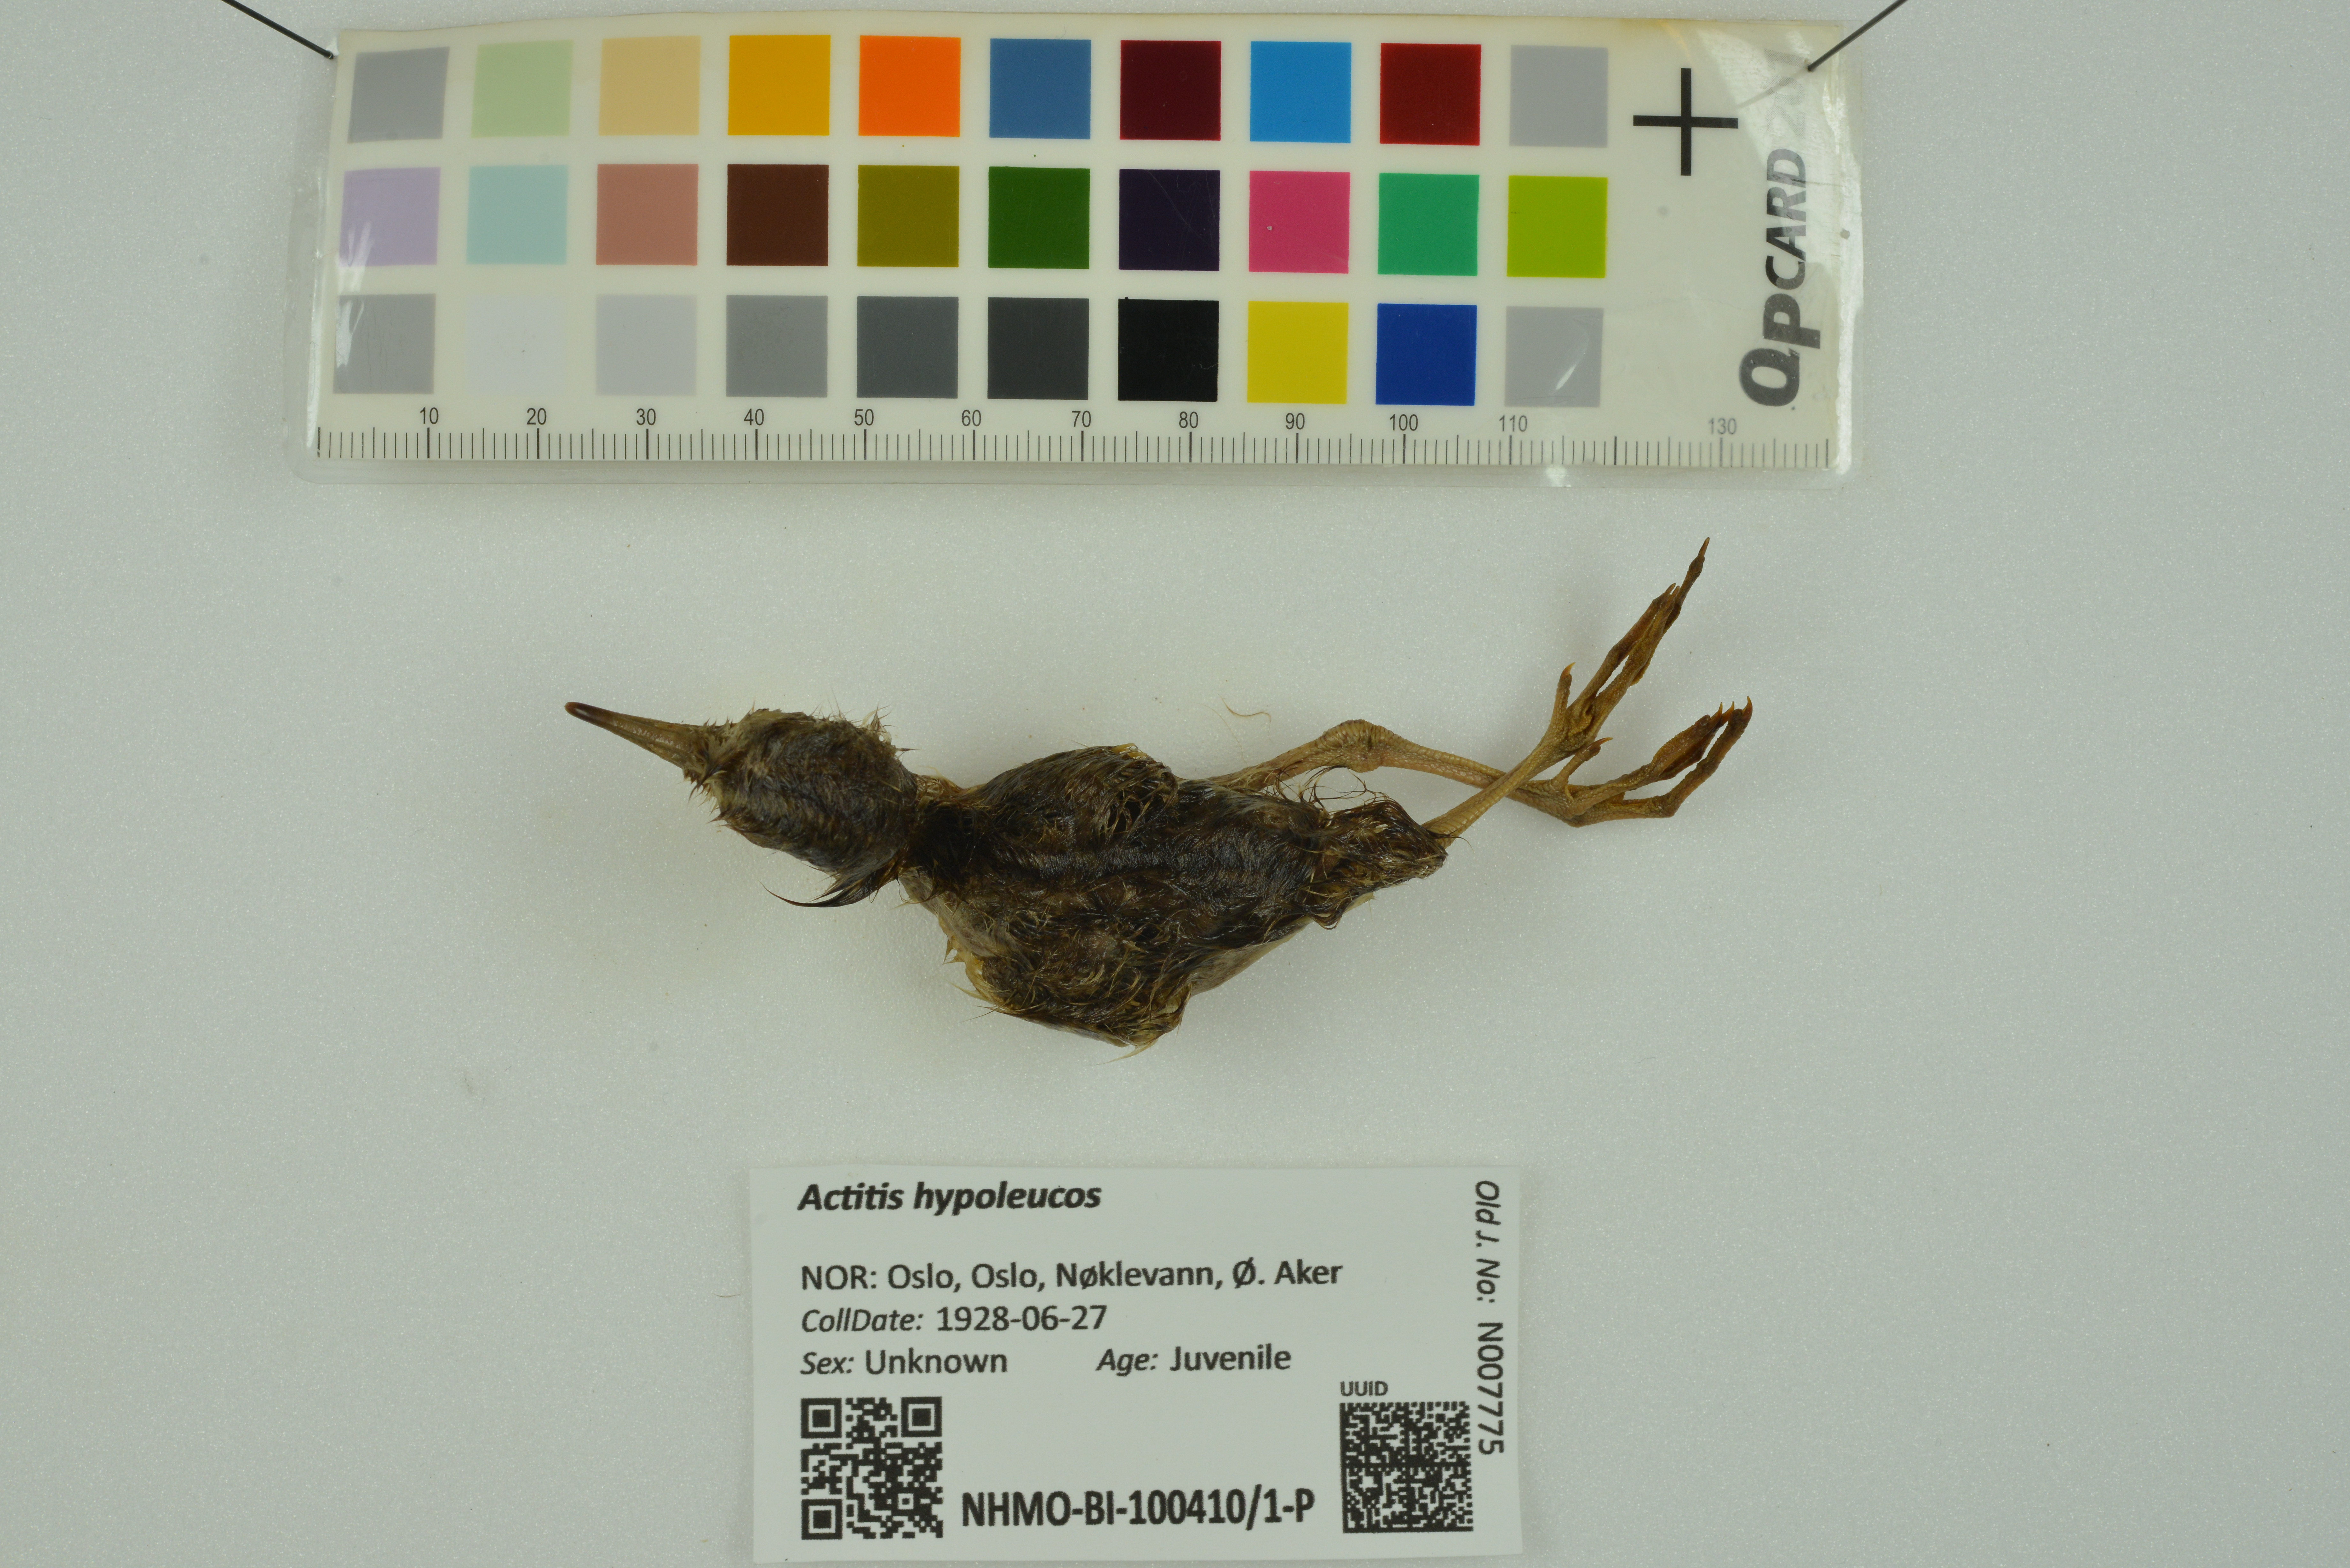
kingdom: Animalia
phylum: Chordata
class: Aves
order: Charadriiformes
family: Scolopacidae
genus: Actitis
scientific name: Actitis hypoleucos
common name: Common sandpiper
